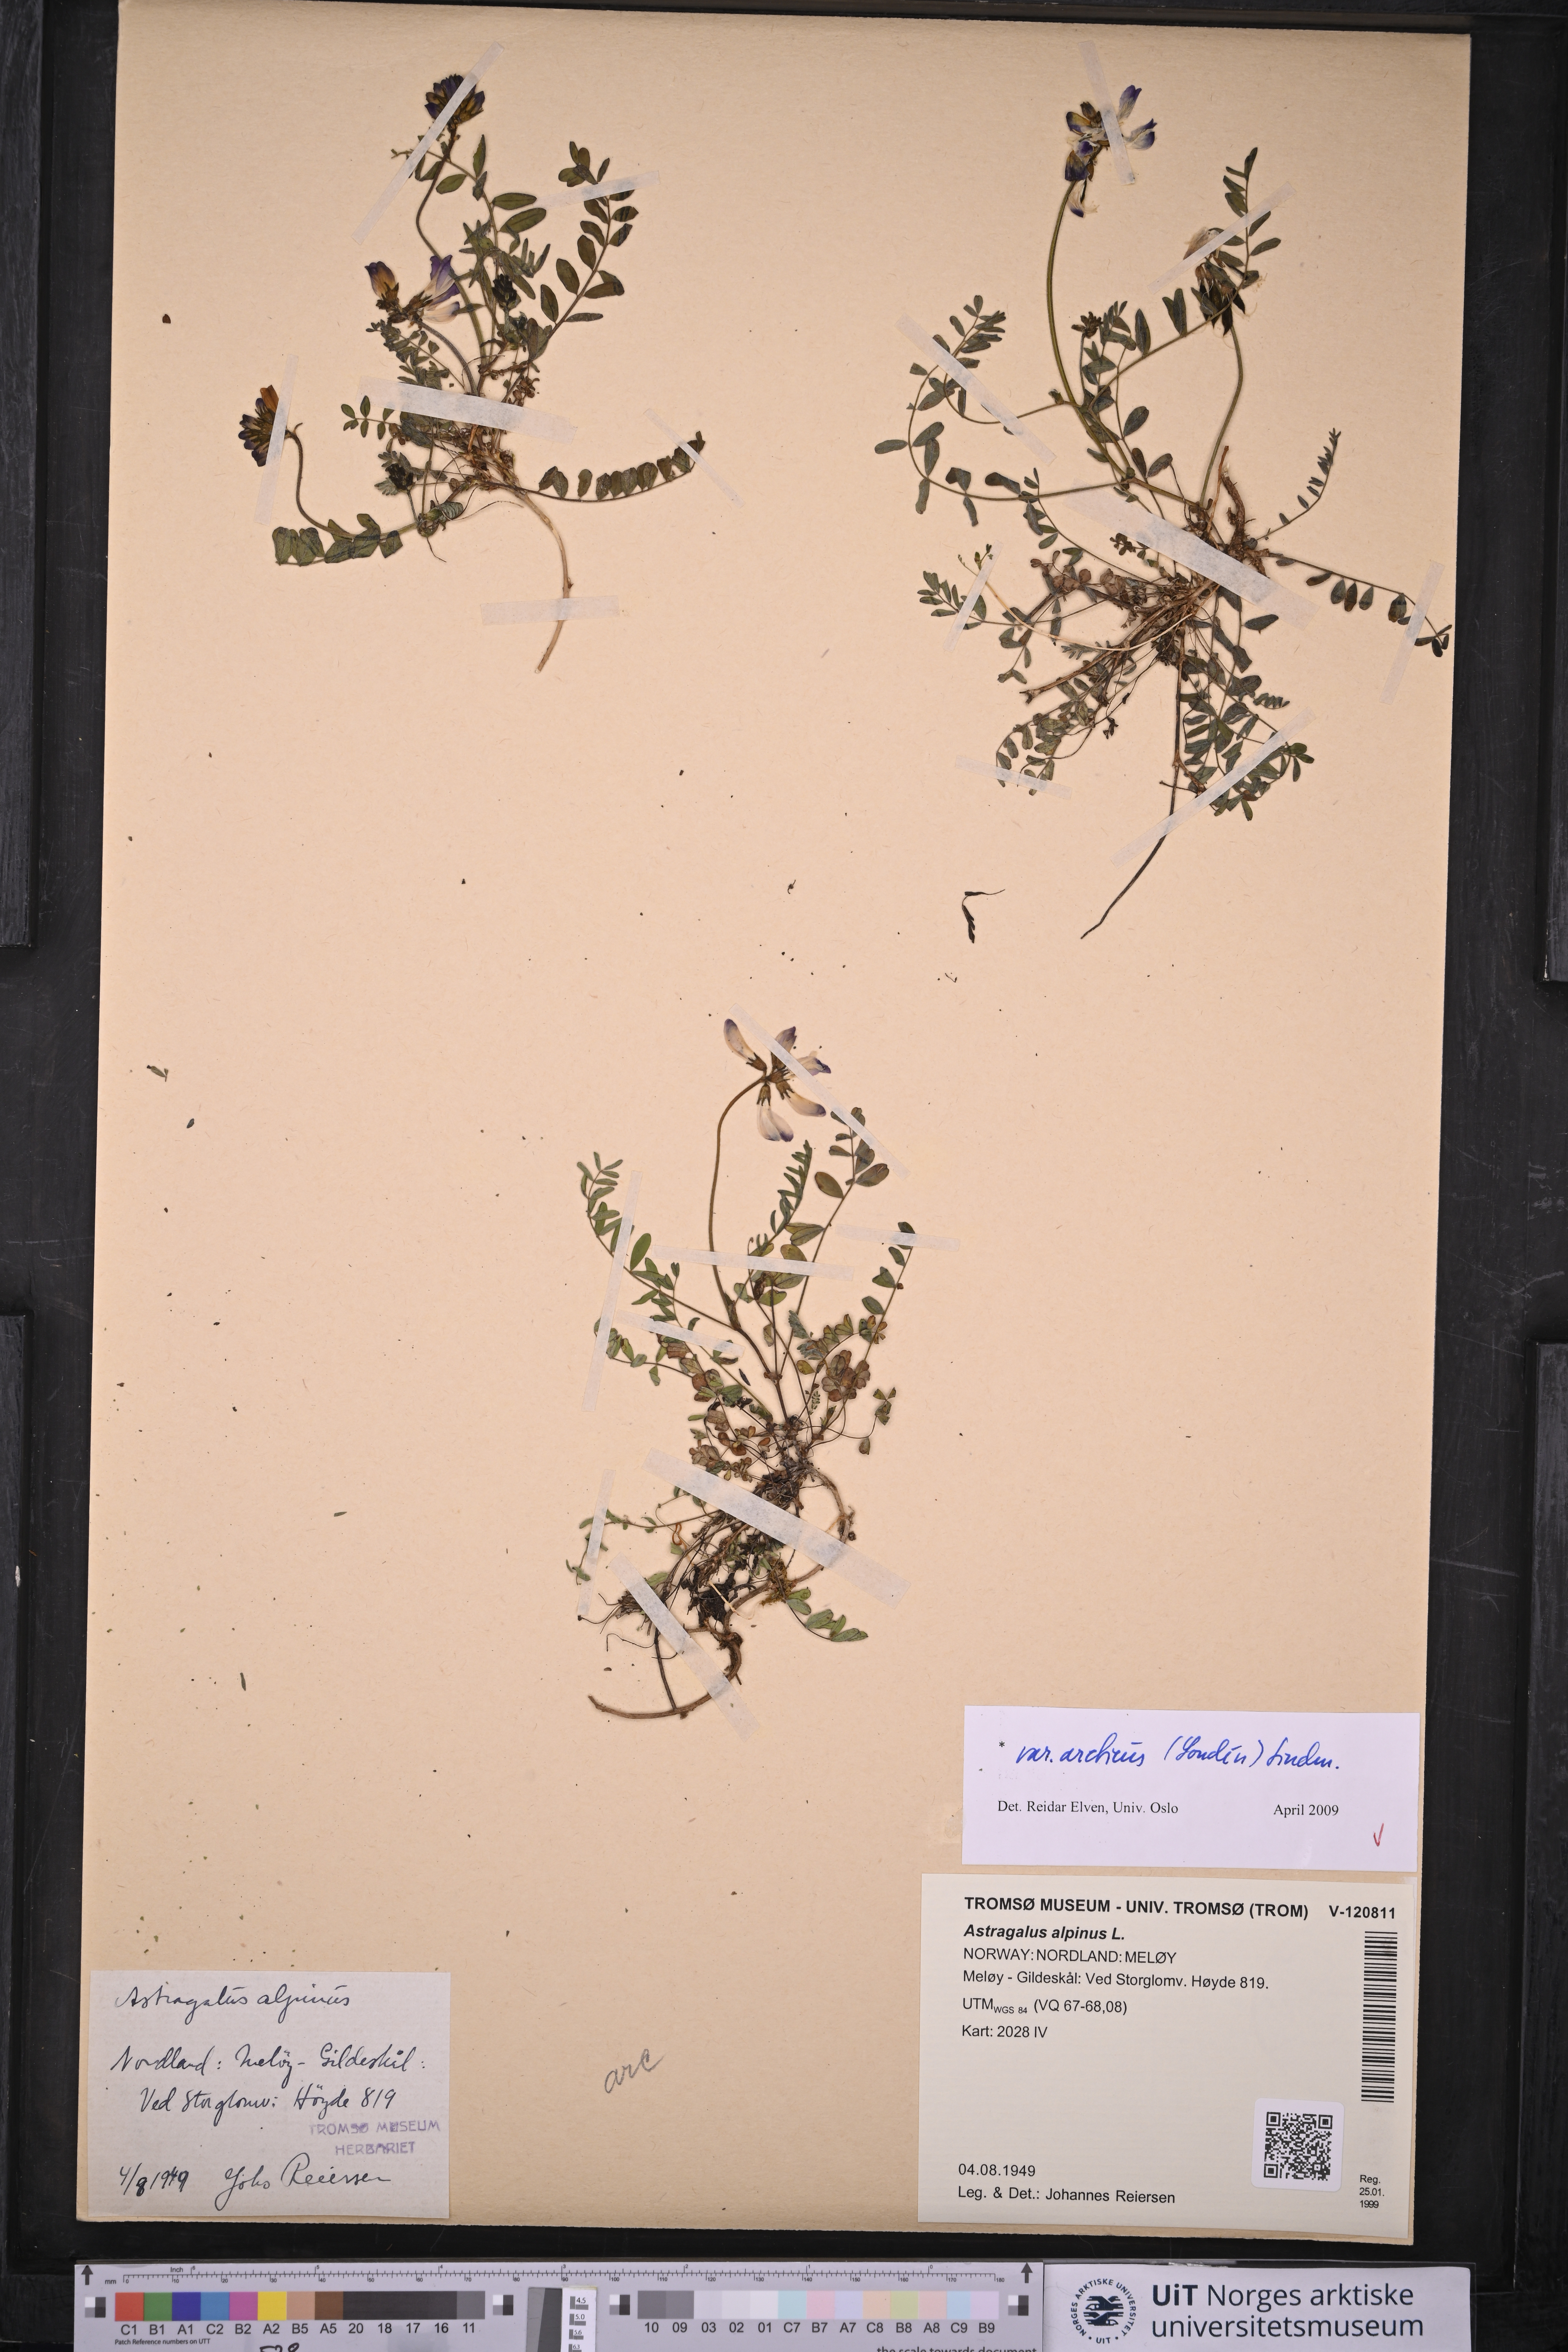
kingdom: Plantae
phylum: Tracheophyta
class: Magnoliopsida
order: Fabales
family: Fabaceae
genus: Astragalus
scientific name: Astragalus norvegicus
